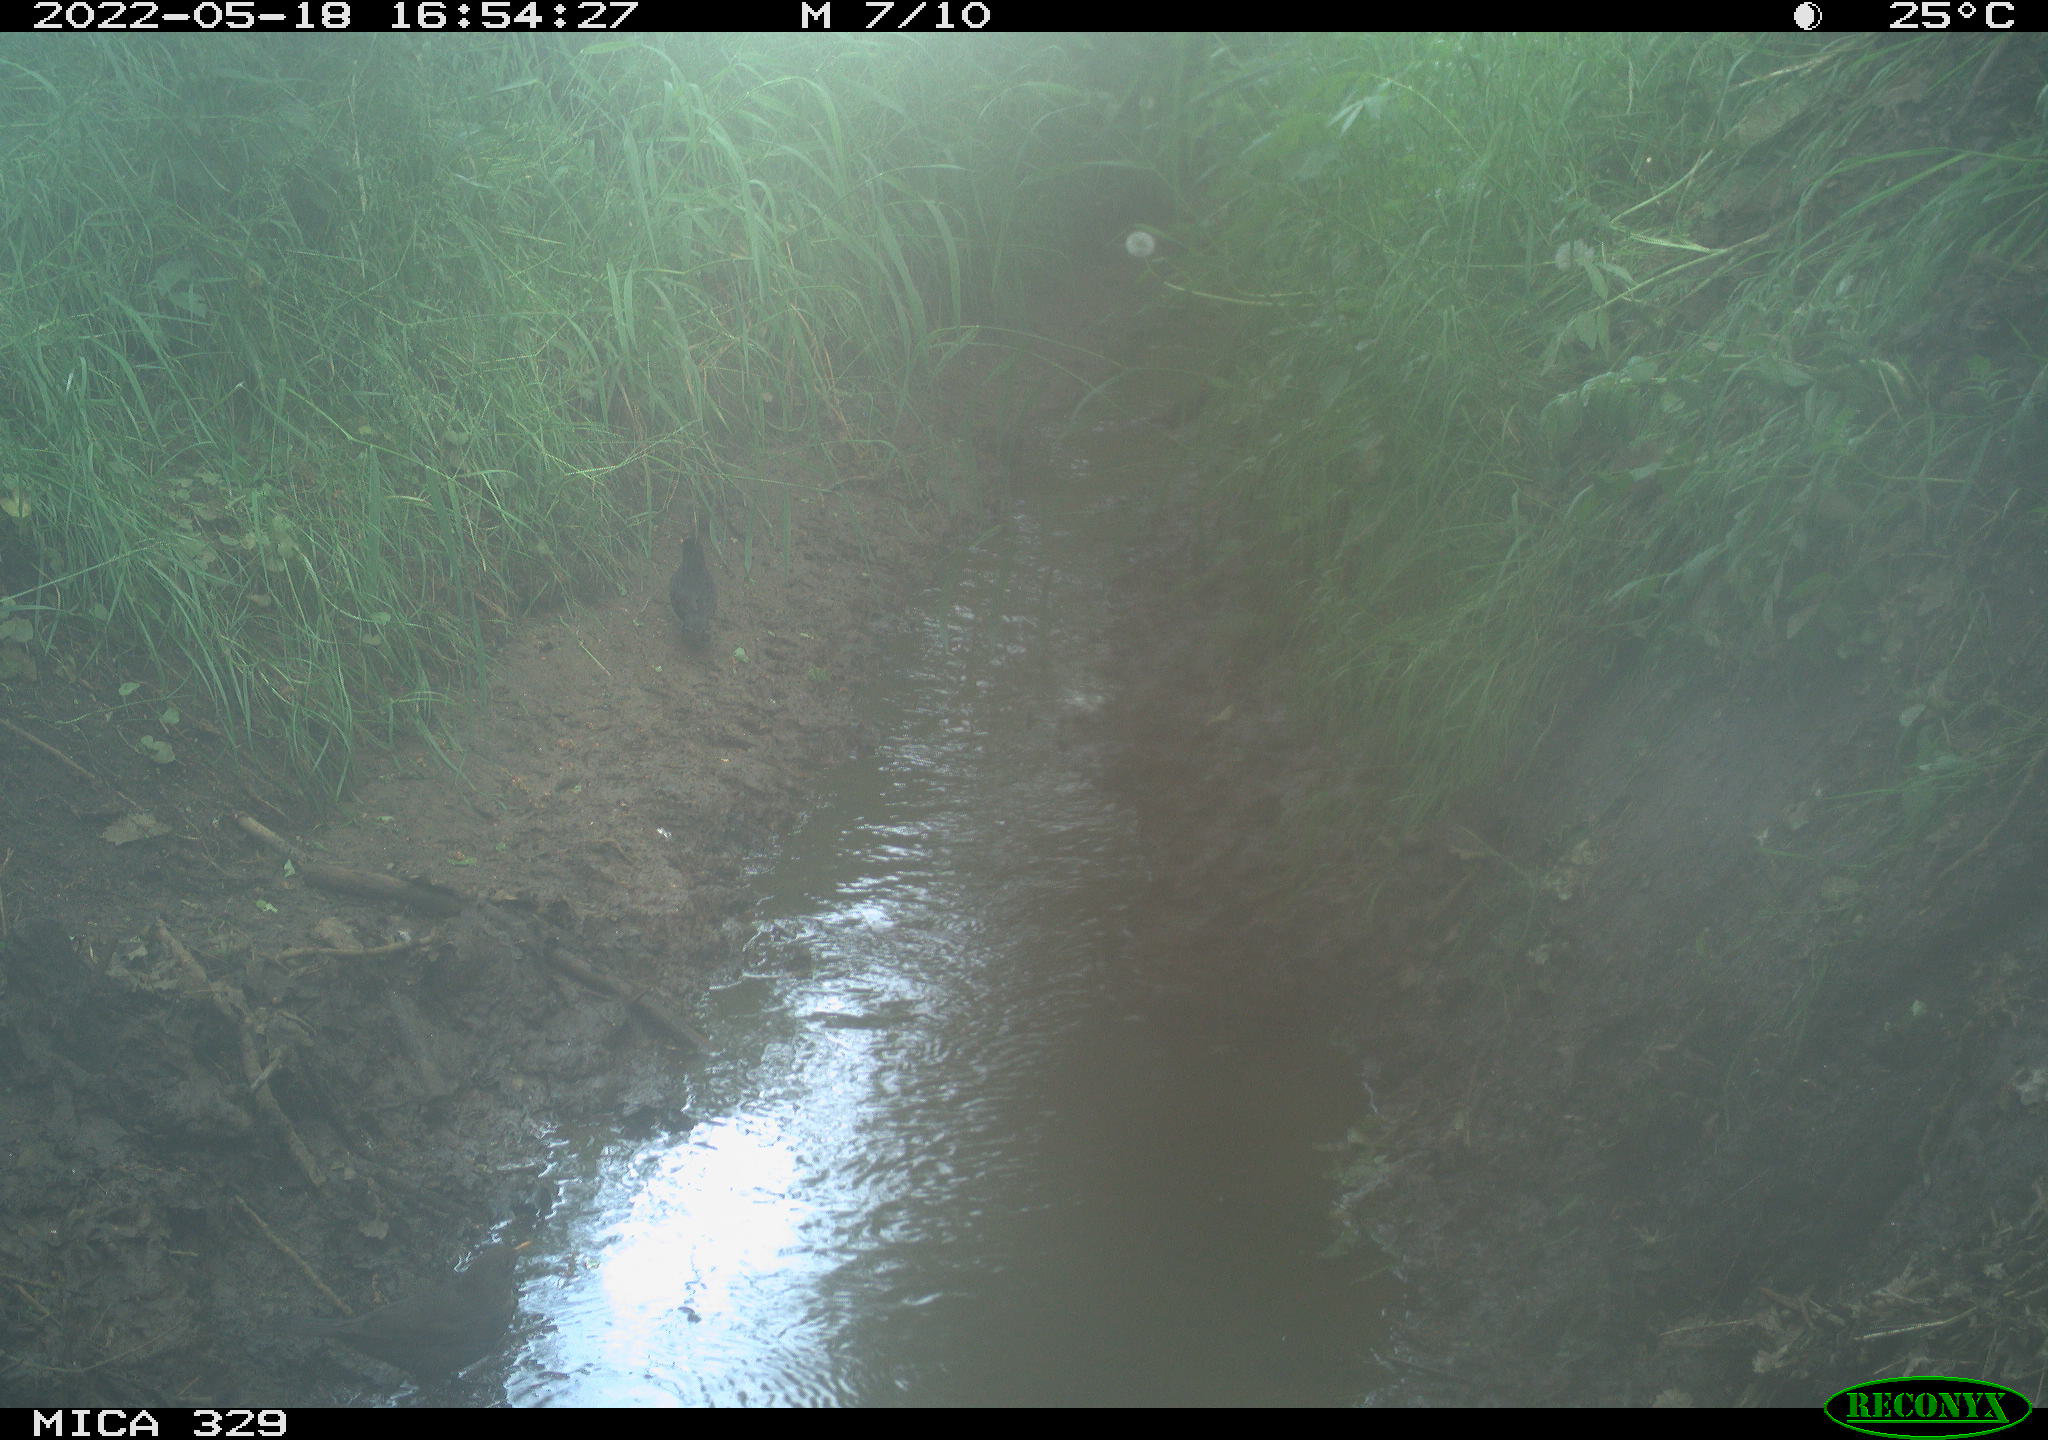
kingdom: Animalia
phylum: Chordata
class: Aves
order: Passeriformes
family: Turdidae
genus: Turdus
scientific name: Turdus merula
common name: Common blackbird
